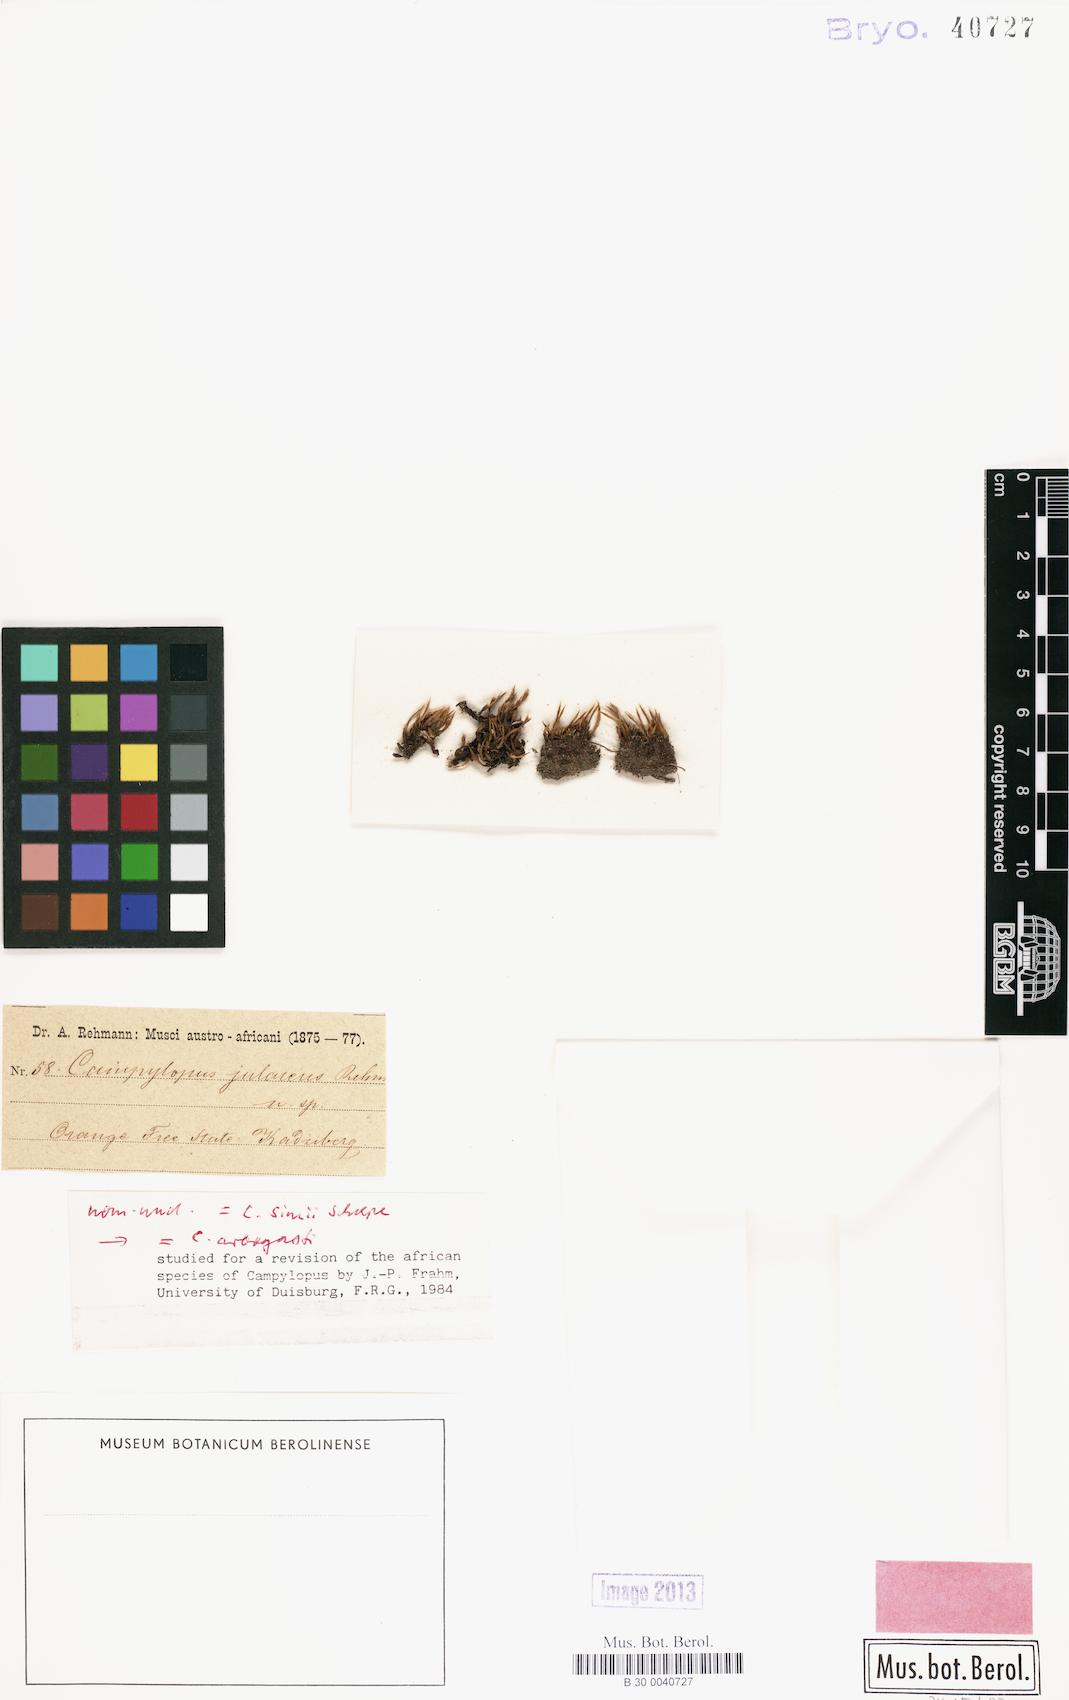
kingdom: Plantae
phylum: Bryophyta
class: Bryopsida
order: Dicranales
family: Leucobryaceae
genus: Campylopus
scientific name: Campylopus julaceus
